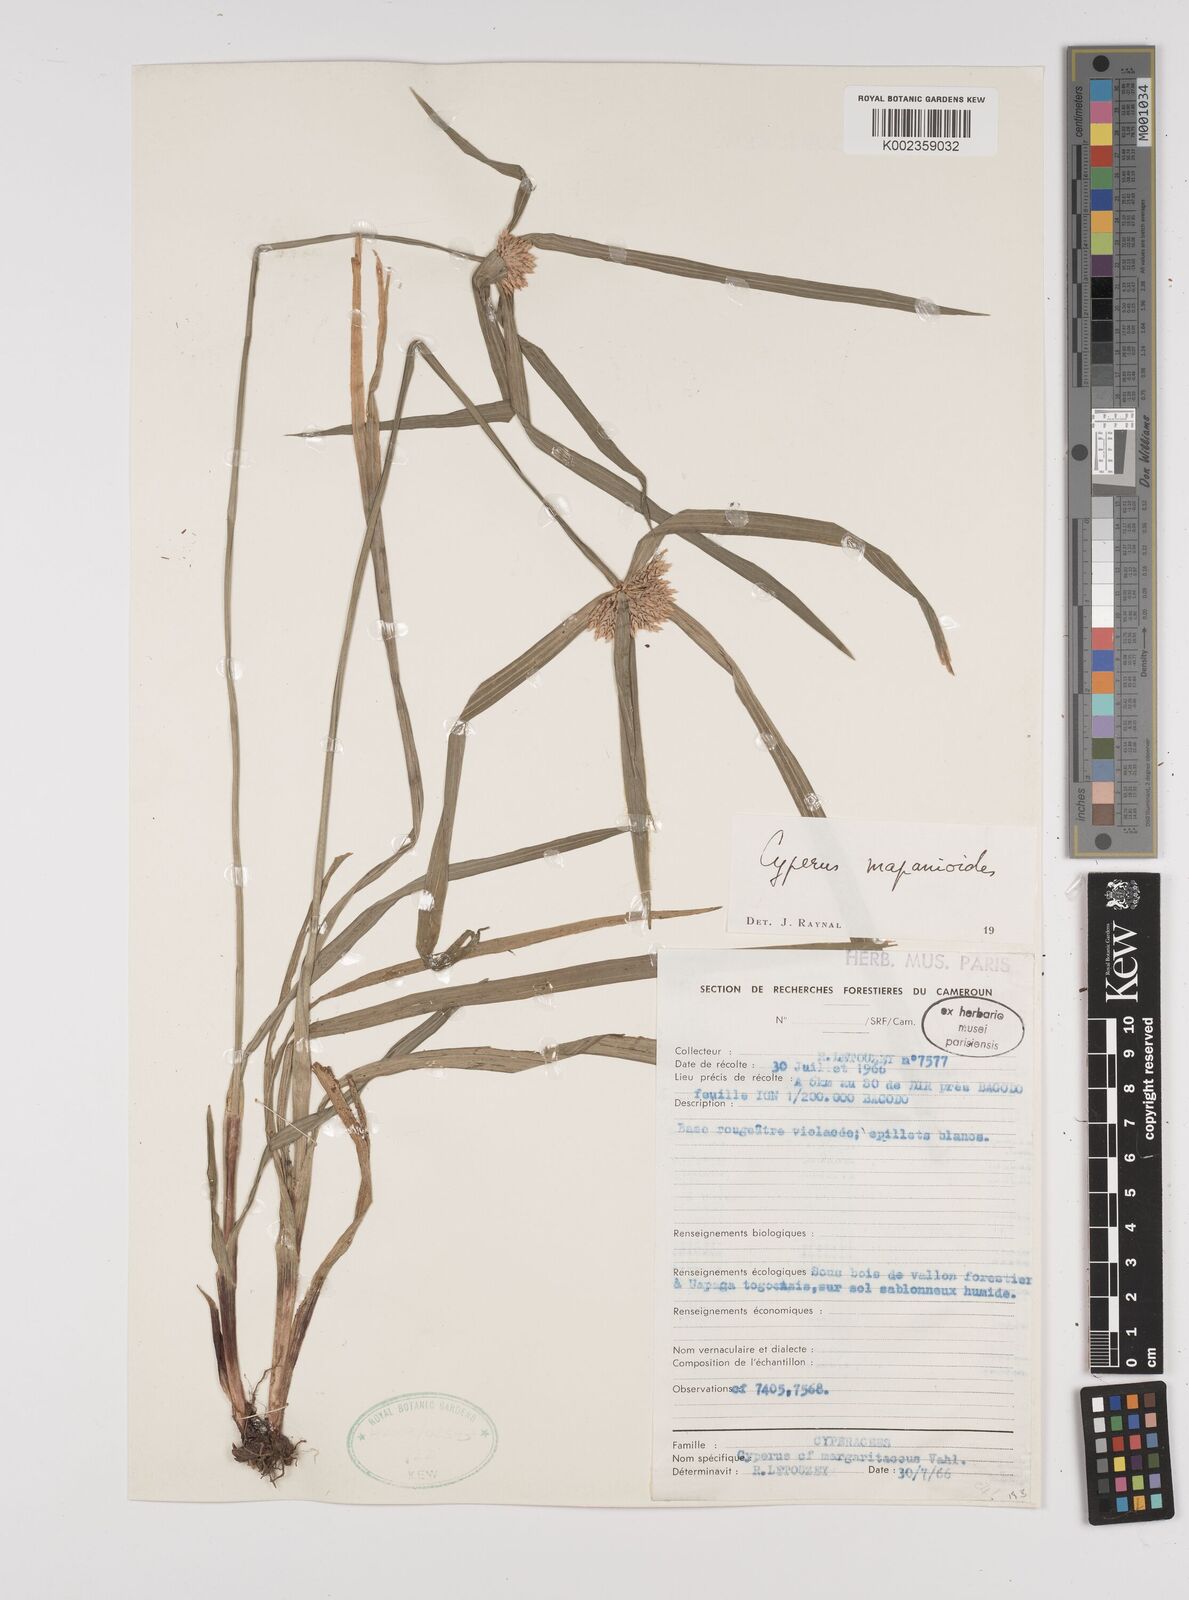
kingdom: Plantae
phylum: Tracheophyta
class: Liliopsida
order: Poales
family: Cyperaceae
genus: Cyperus
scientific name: Cyperus mapanioides
